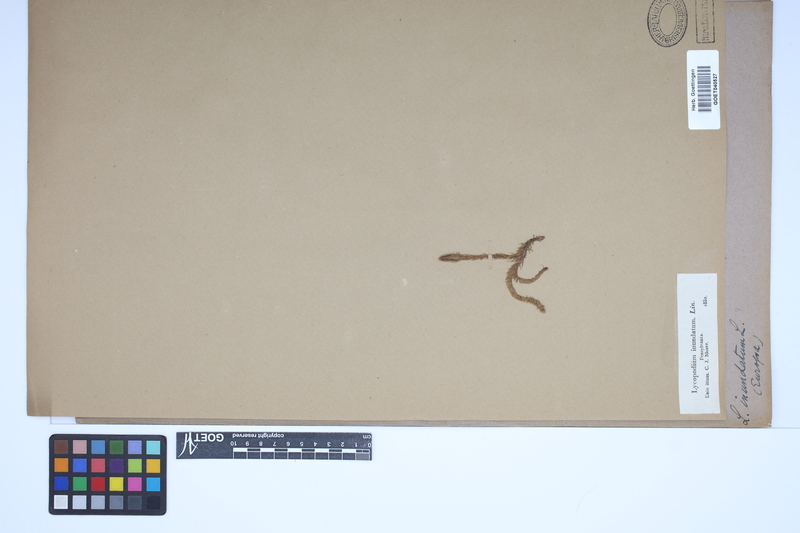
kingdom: Plantae
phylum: Tracheophyta
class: Lycopodiopsida
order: Lycopodiales
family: Lycopodiaceae
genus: Lycopodiella
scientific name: Lycopodiella inundata
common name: Marsh clubmoss
